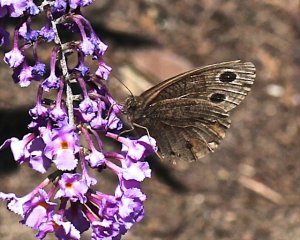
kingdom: Animalia
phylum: Arthropoda
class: Insecta
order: Lepidoptera
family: Nymphalidae
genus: Cercyonis
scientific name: Cercyonis pegala
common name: Common Wood-Nymph
